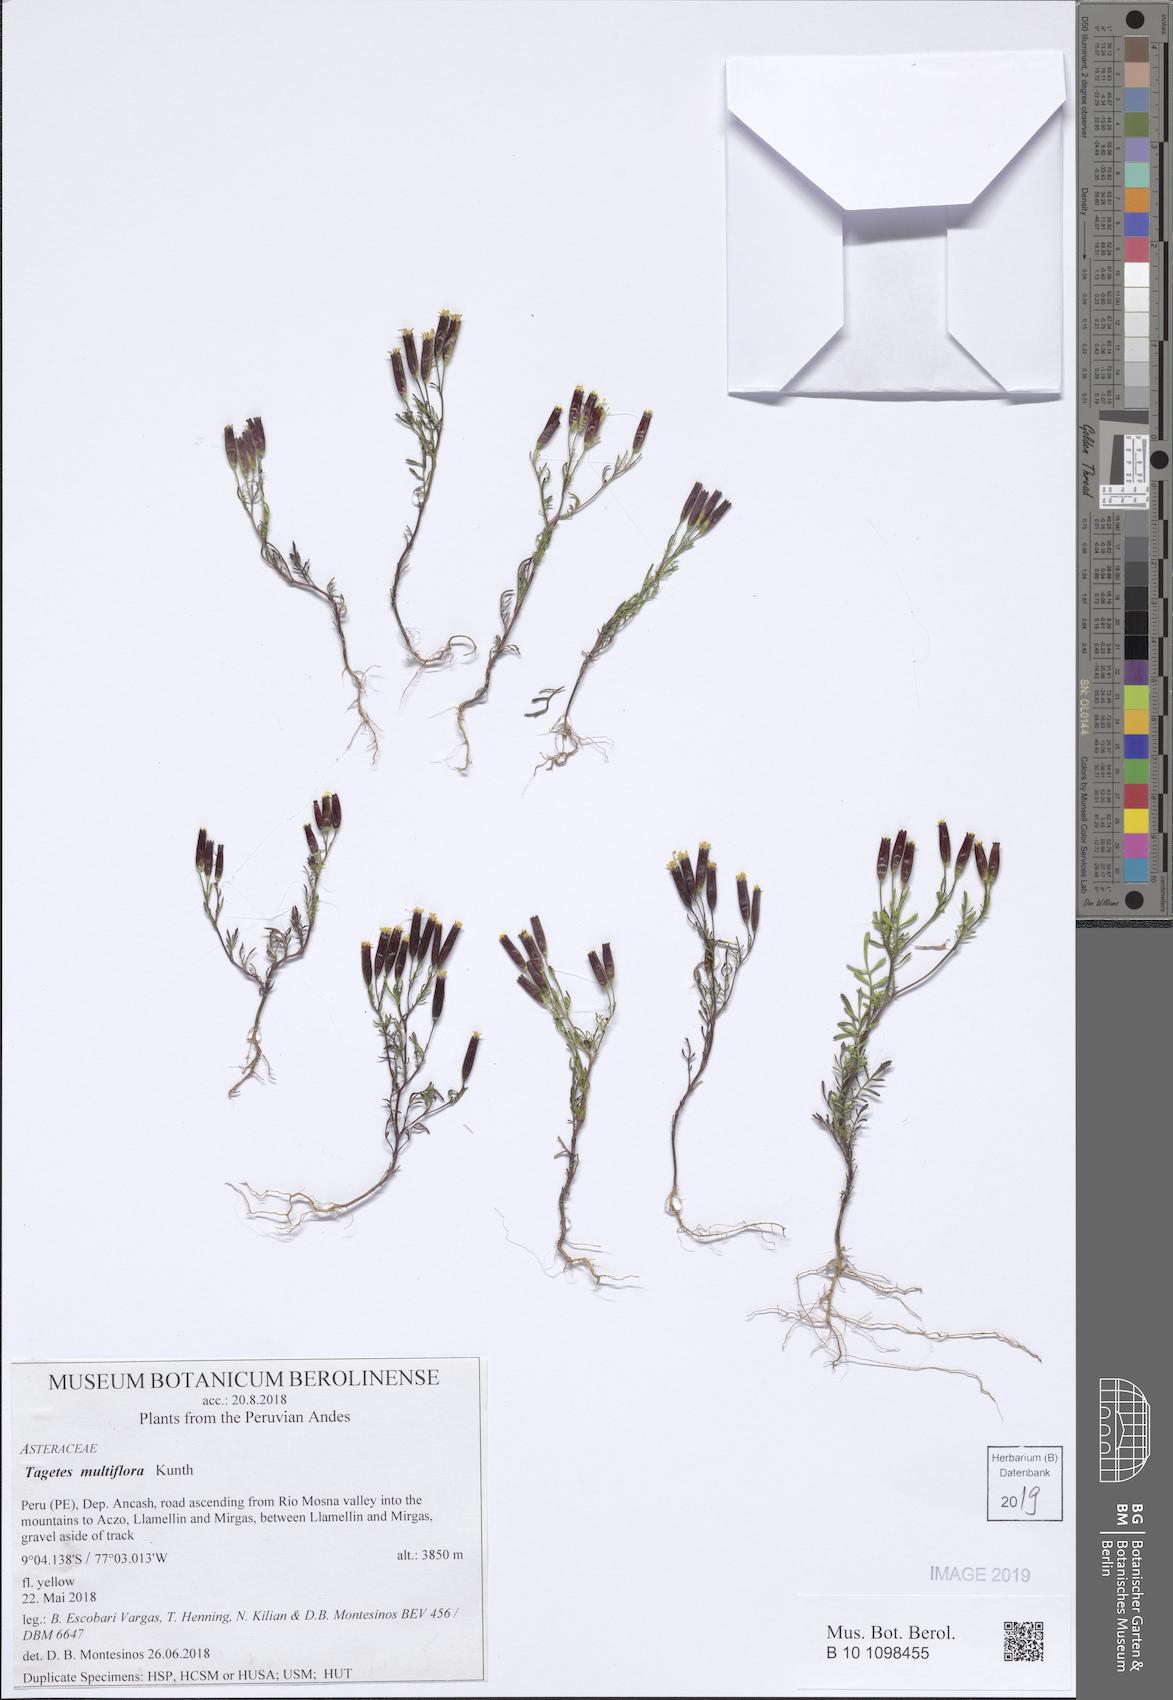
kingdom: Plantae
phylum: Tracheophyta
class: Magnoliopsida
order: Asterales
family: Asteraceae
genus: Tagetes
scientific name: Tagetes multiflora
